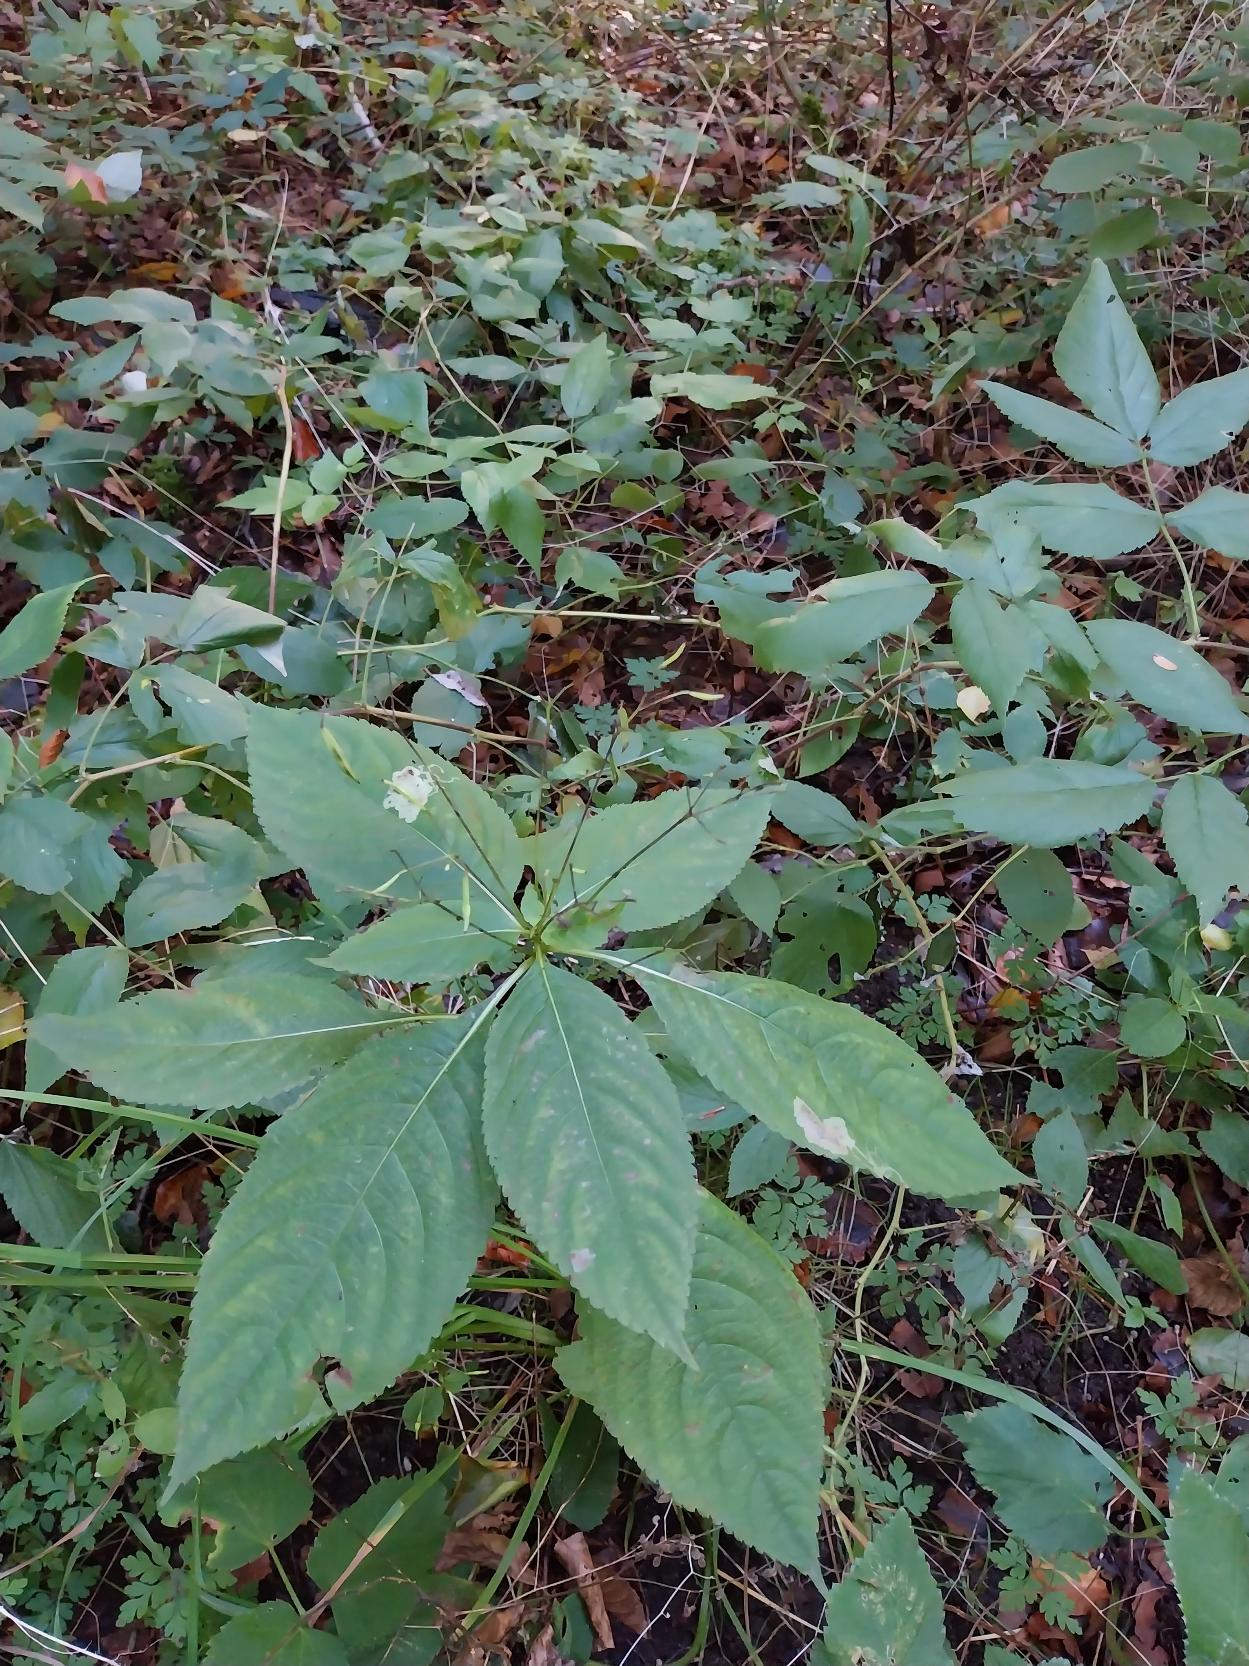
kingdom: Plantae
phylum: Tracheophyta
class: Magnoliopsida
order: Ericales
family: Balsaminaceae
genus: Impatiens
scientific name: Impatiens parviflora
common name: Småblomstret balsamin
